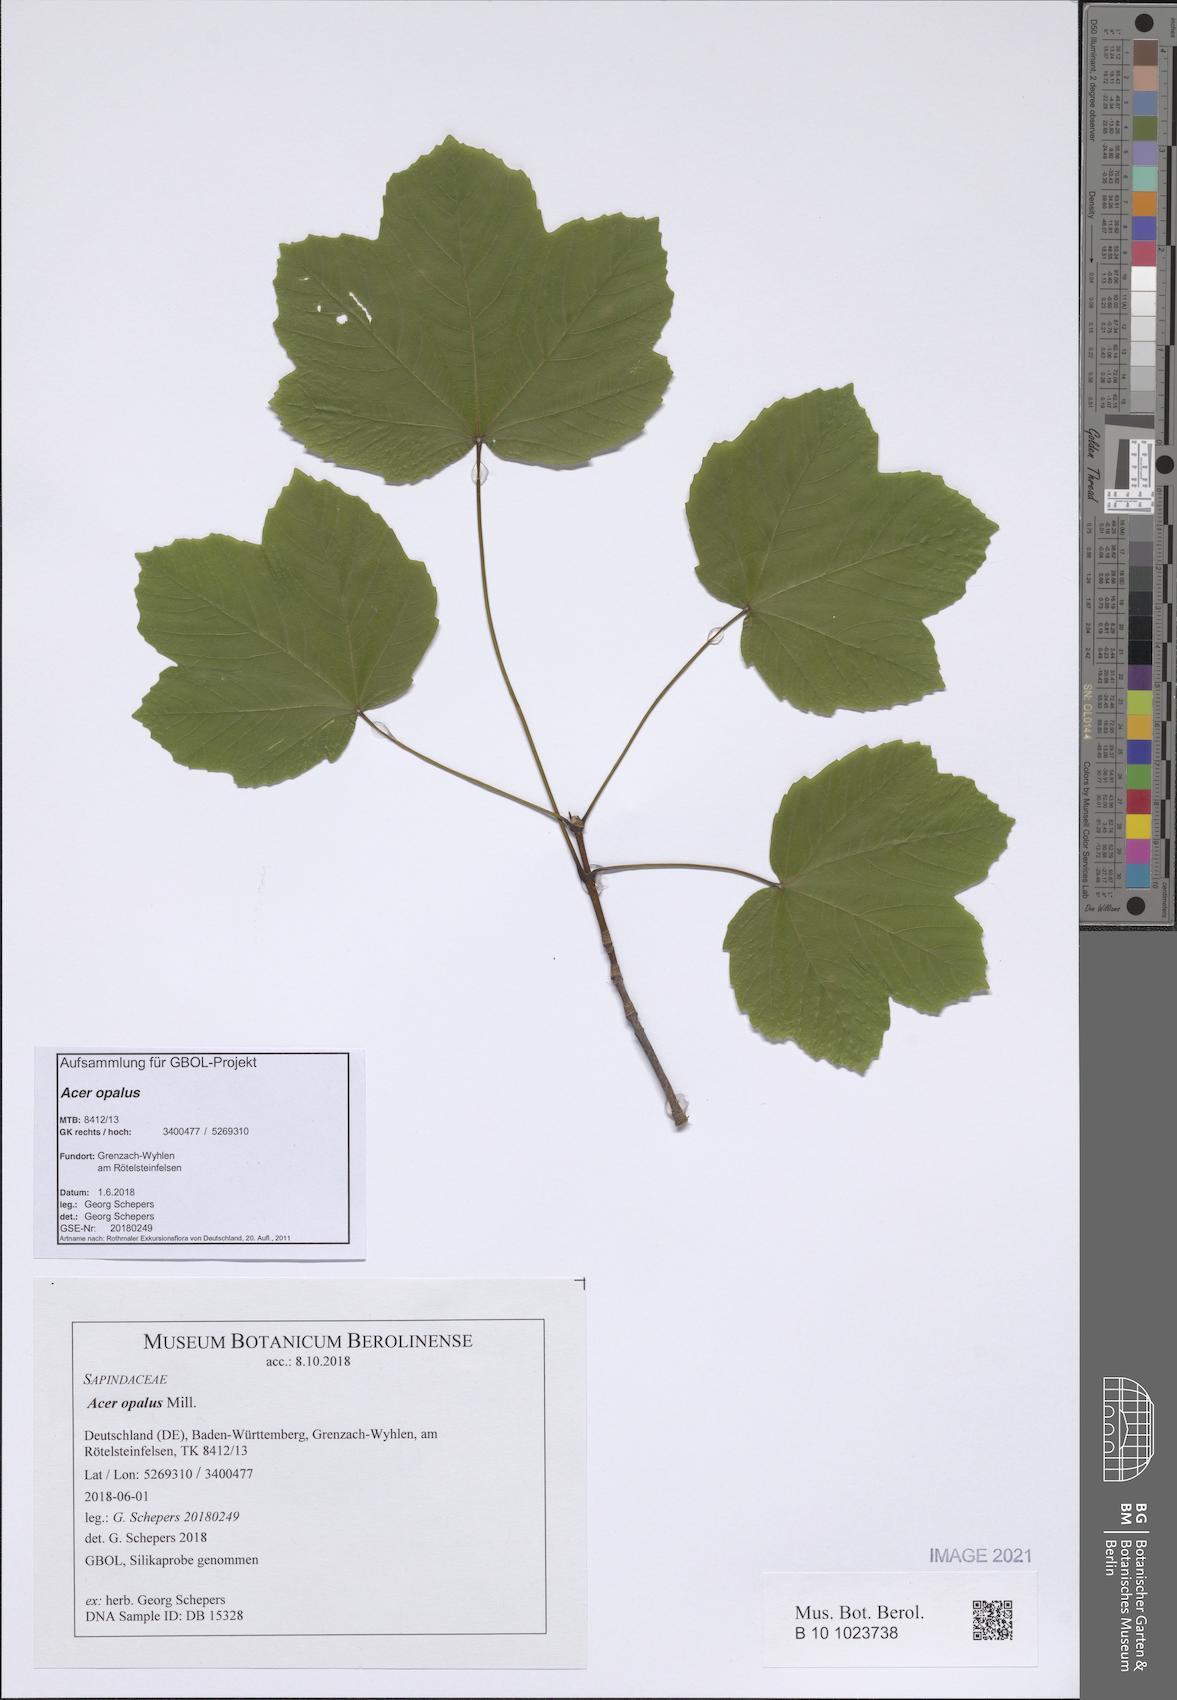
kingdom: Plantae
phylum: Tracheophyta
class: Magnoliopsida
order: Sapindales
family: Sapindaceae
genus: Acer
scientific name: Acer opalus
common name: Italian maple
